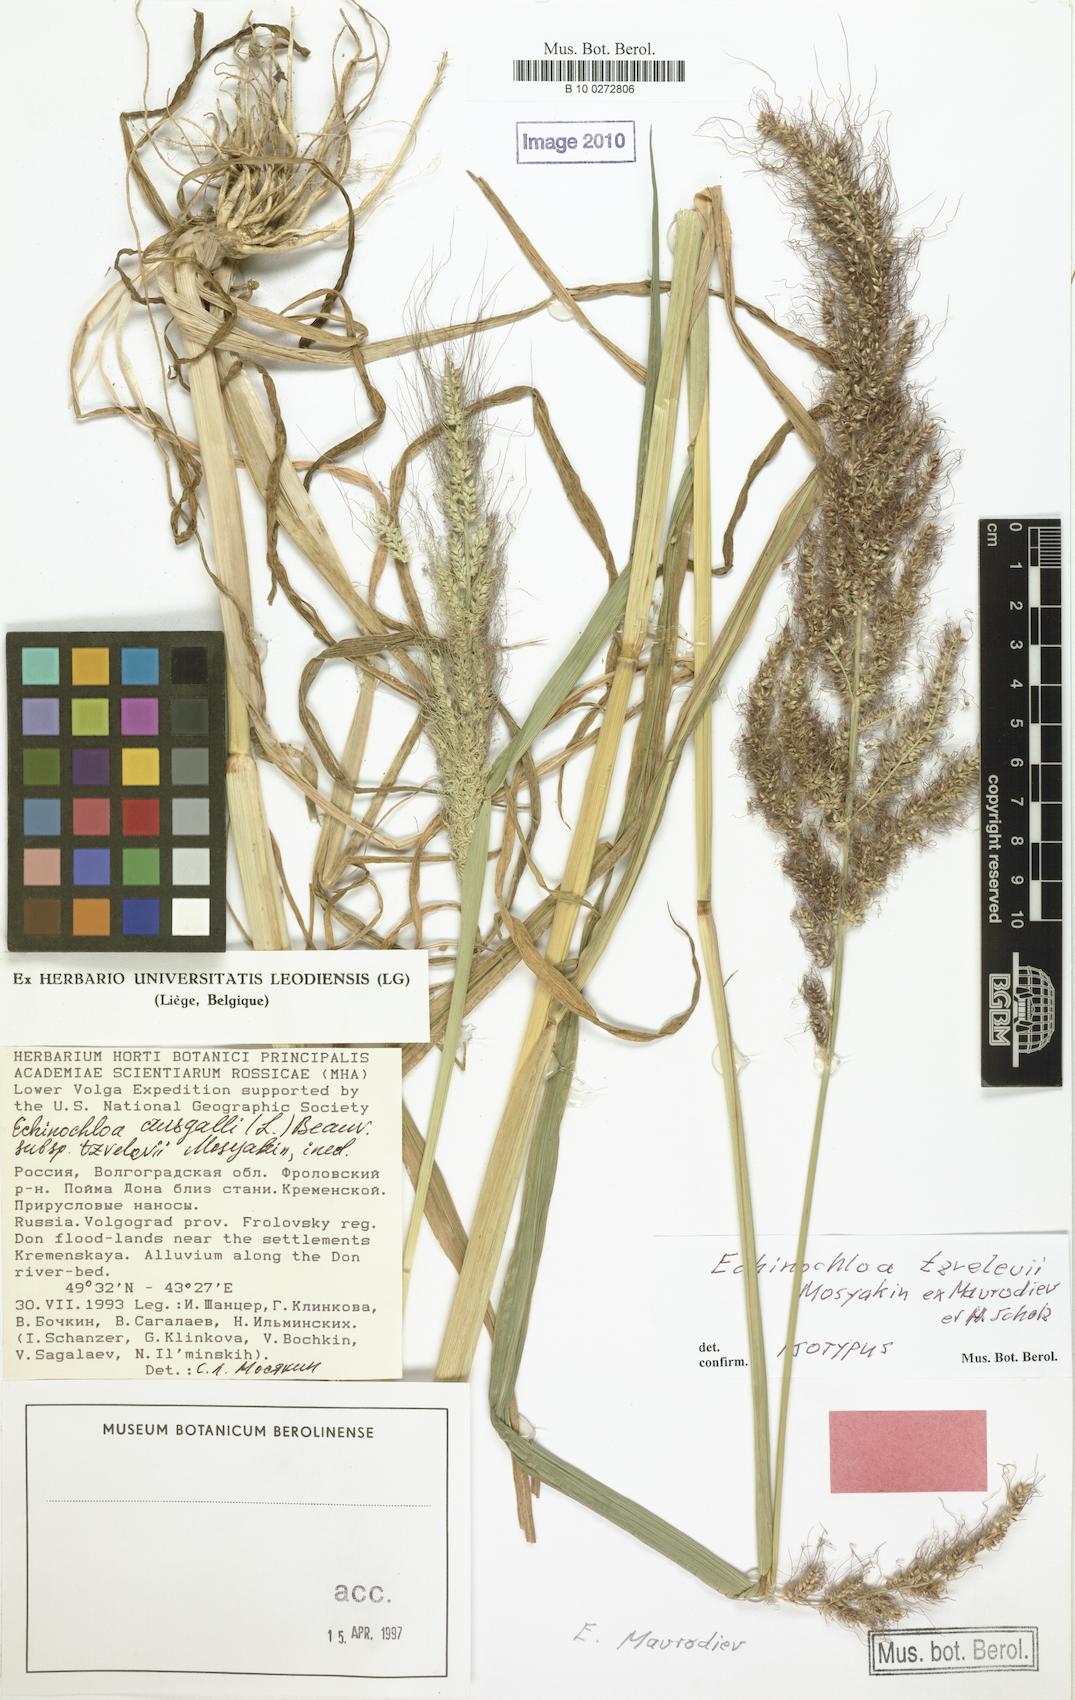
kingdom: Plantae
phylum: Tracheophyta
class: Liliopsida
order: Poales
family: Poaceae
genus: Echinochloa
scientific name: Echinochloa crus-galli
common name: Cockspur
